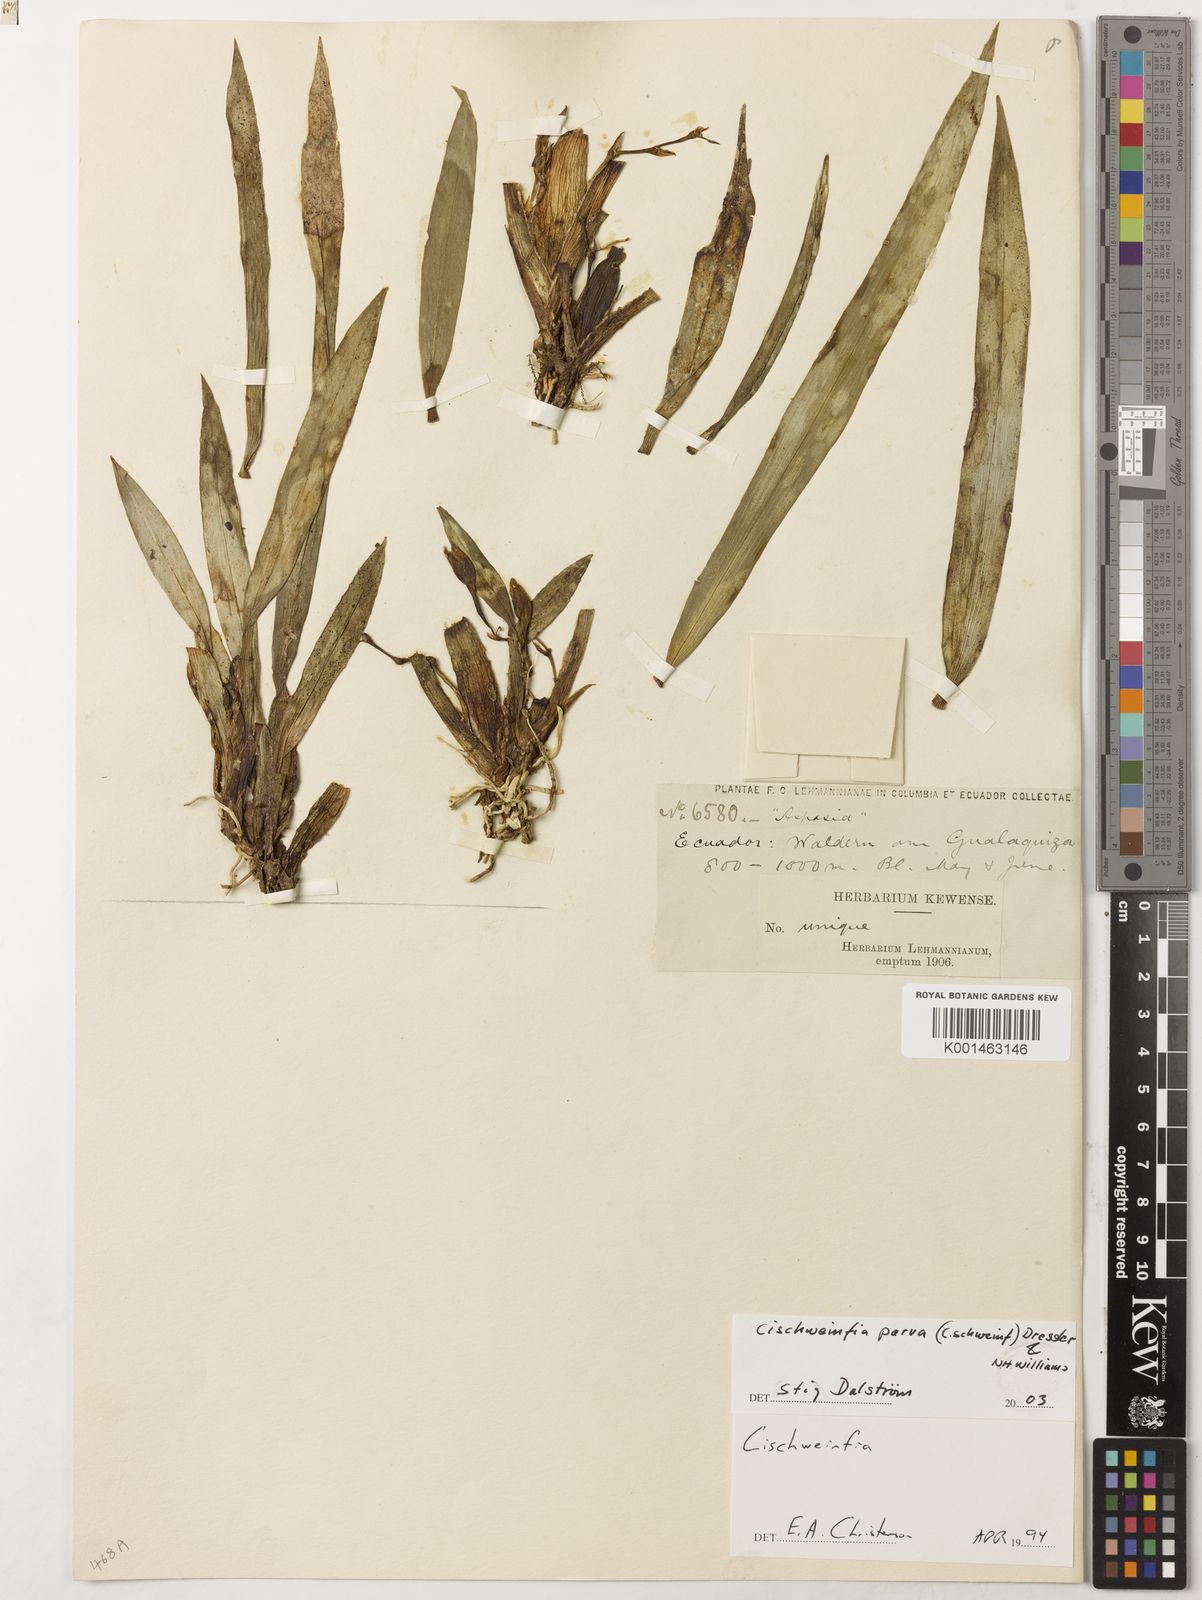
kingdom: Plantae
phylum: Tracheophyta
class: Liliopsida
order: Asparagales
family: Orchidaceae
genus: Cischweinfia
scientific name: Cischweinfia parva
